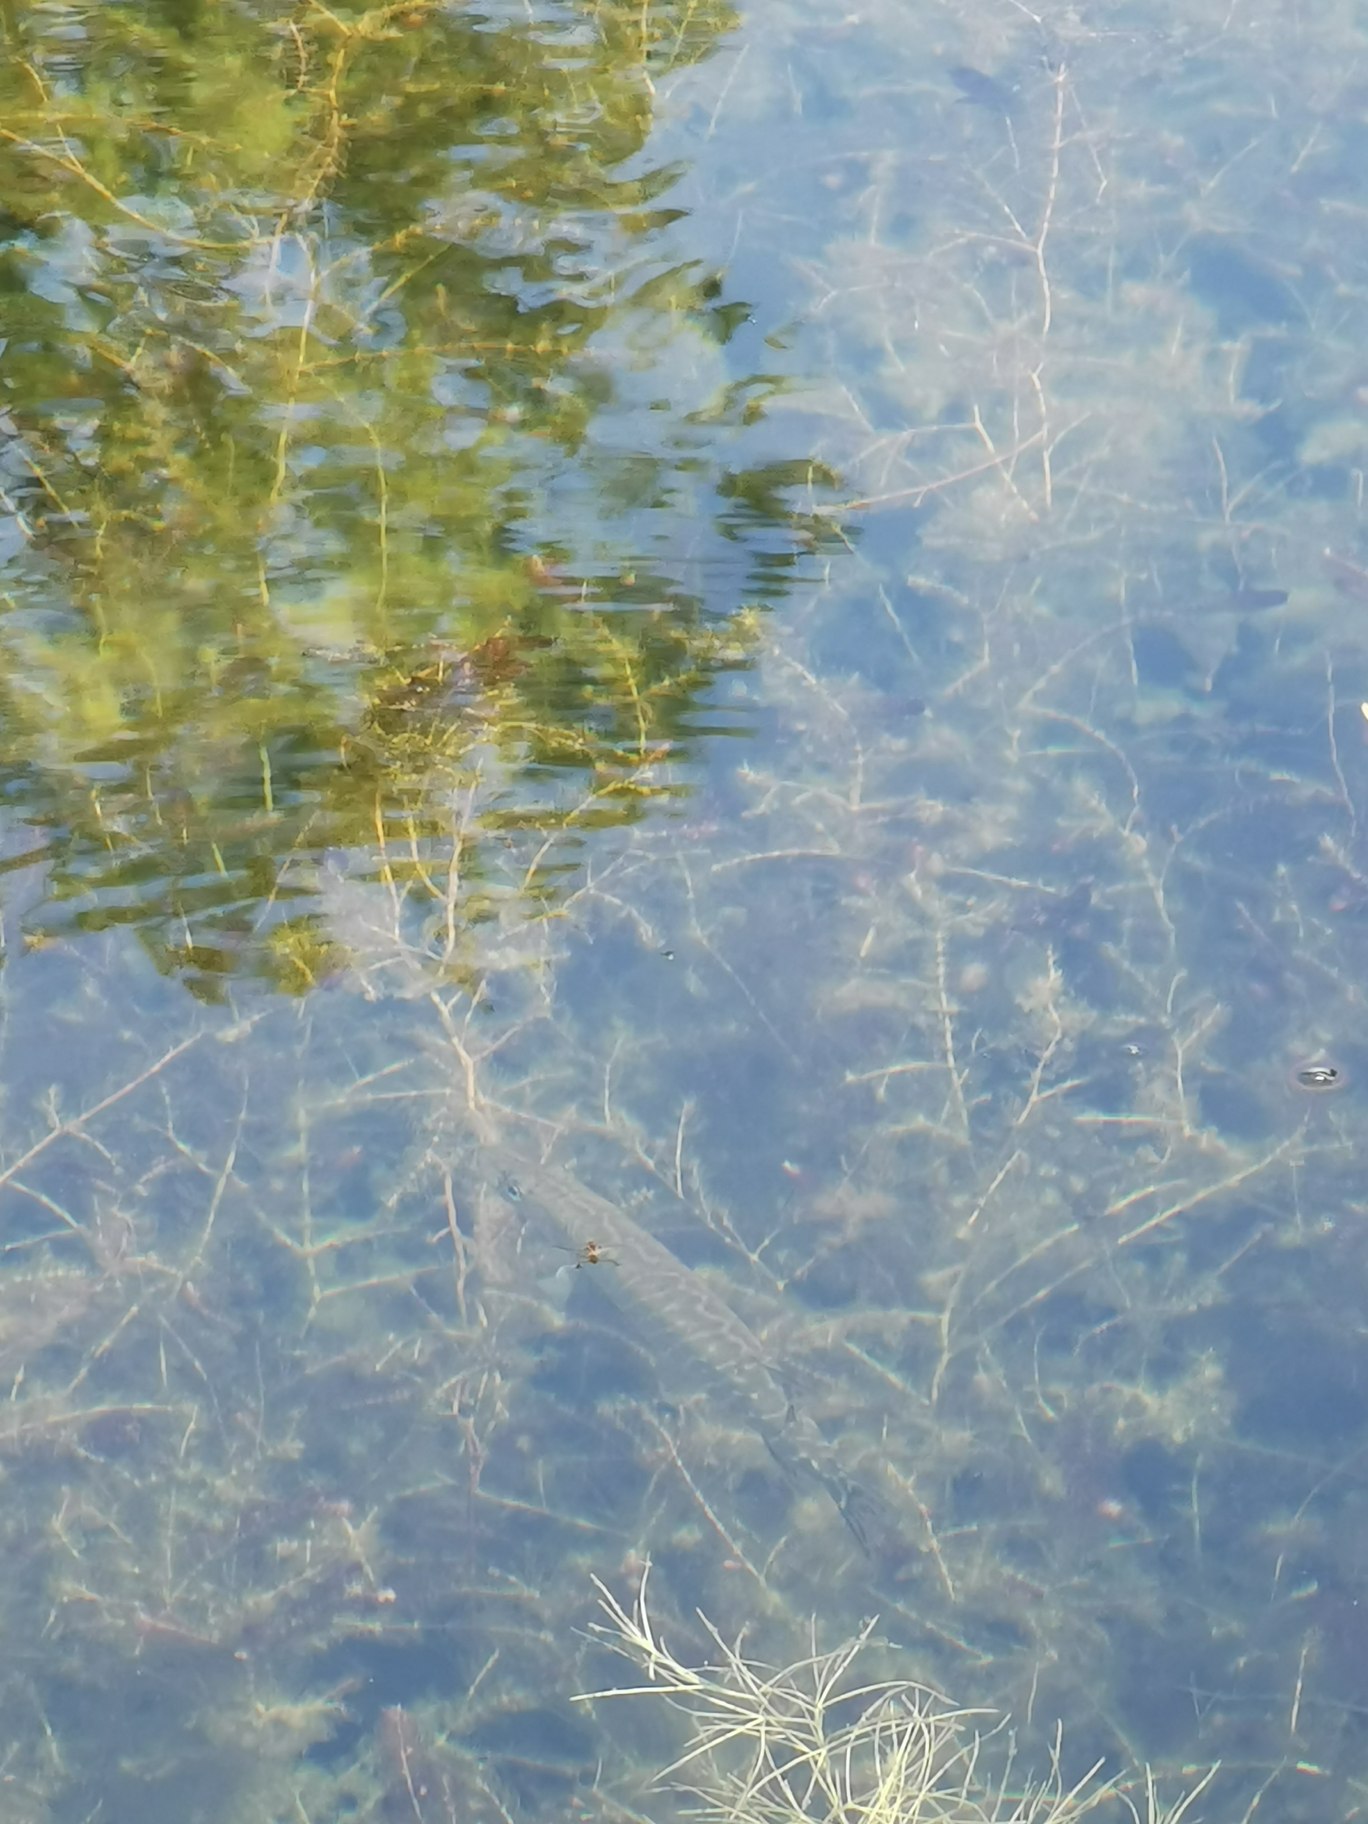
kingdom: Animalia
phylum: Chordata
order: Esociformes
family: Esocidae
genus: Esox
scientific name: Esox lucius
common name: Gedde
